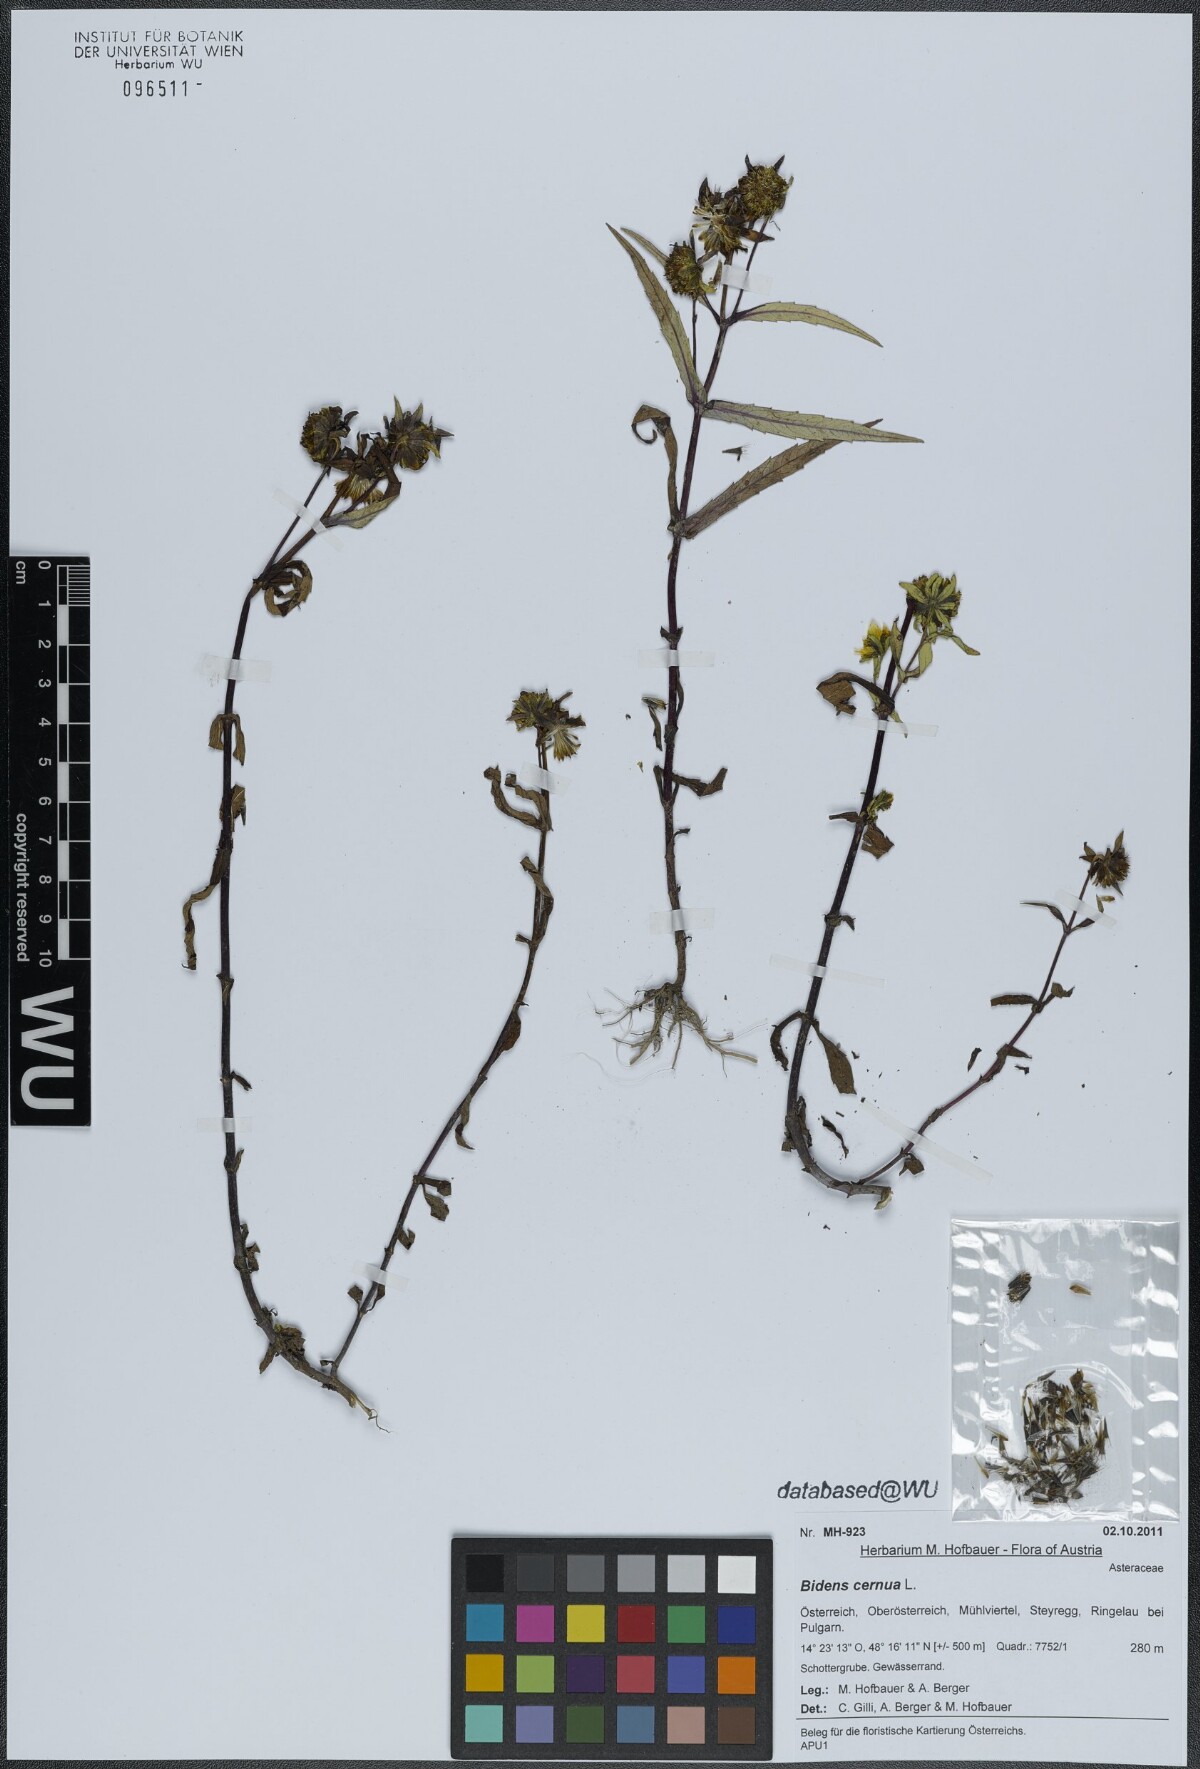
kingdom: Plantae
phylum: Tracheophyta
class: Magnoliopsida
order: Asterales
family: Asteraceae
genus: Bidens
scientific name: Bidens cernua
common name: Nodding bur-marigold
